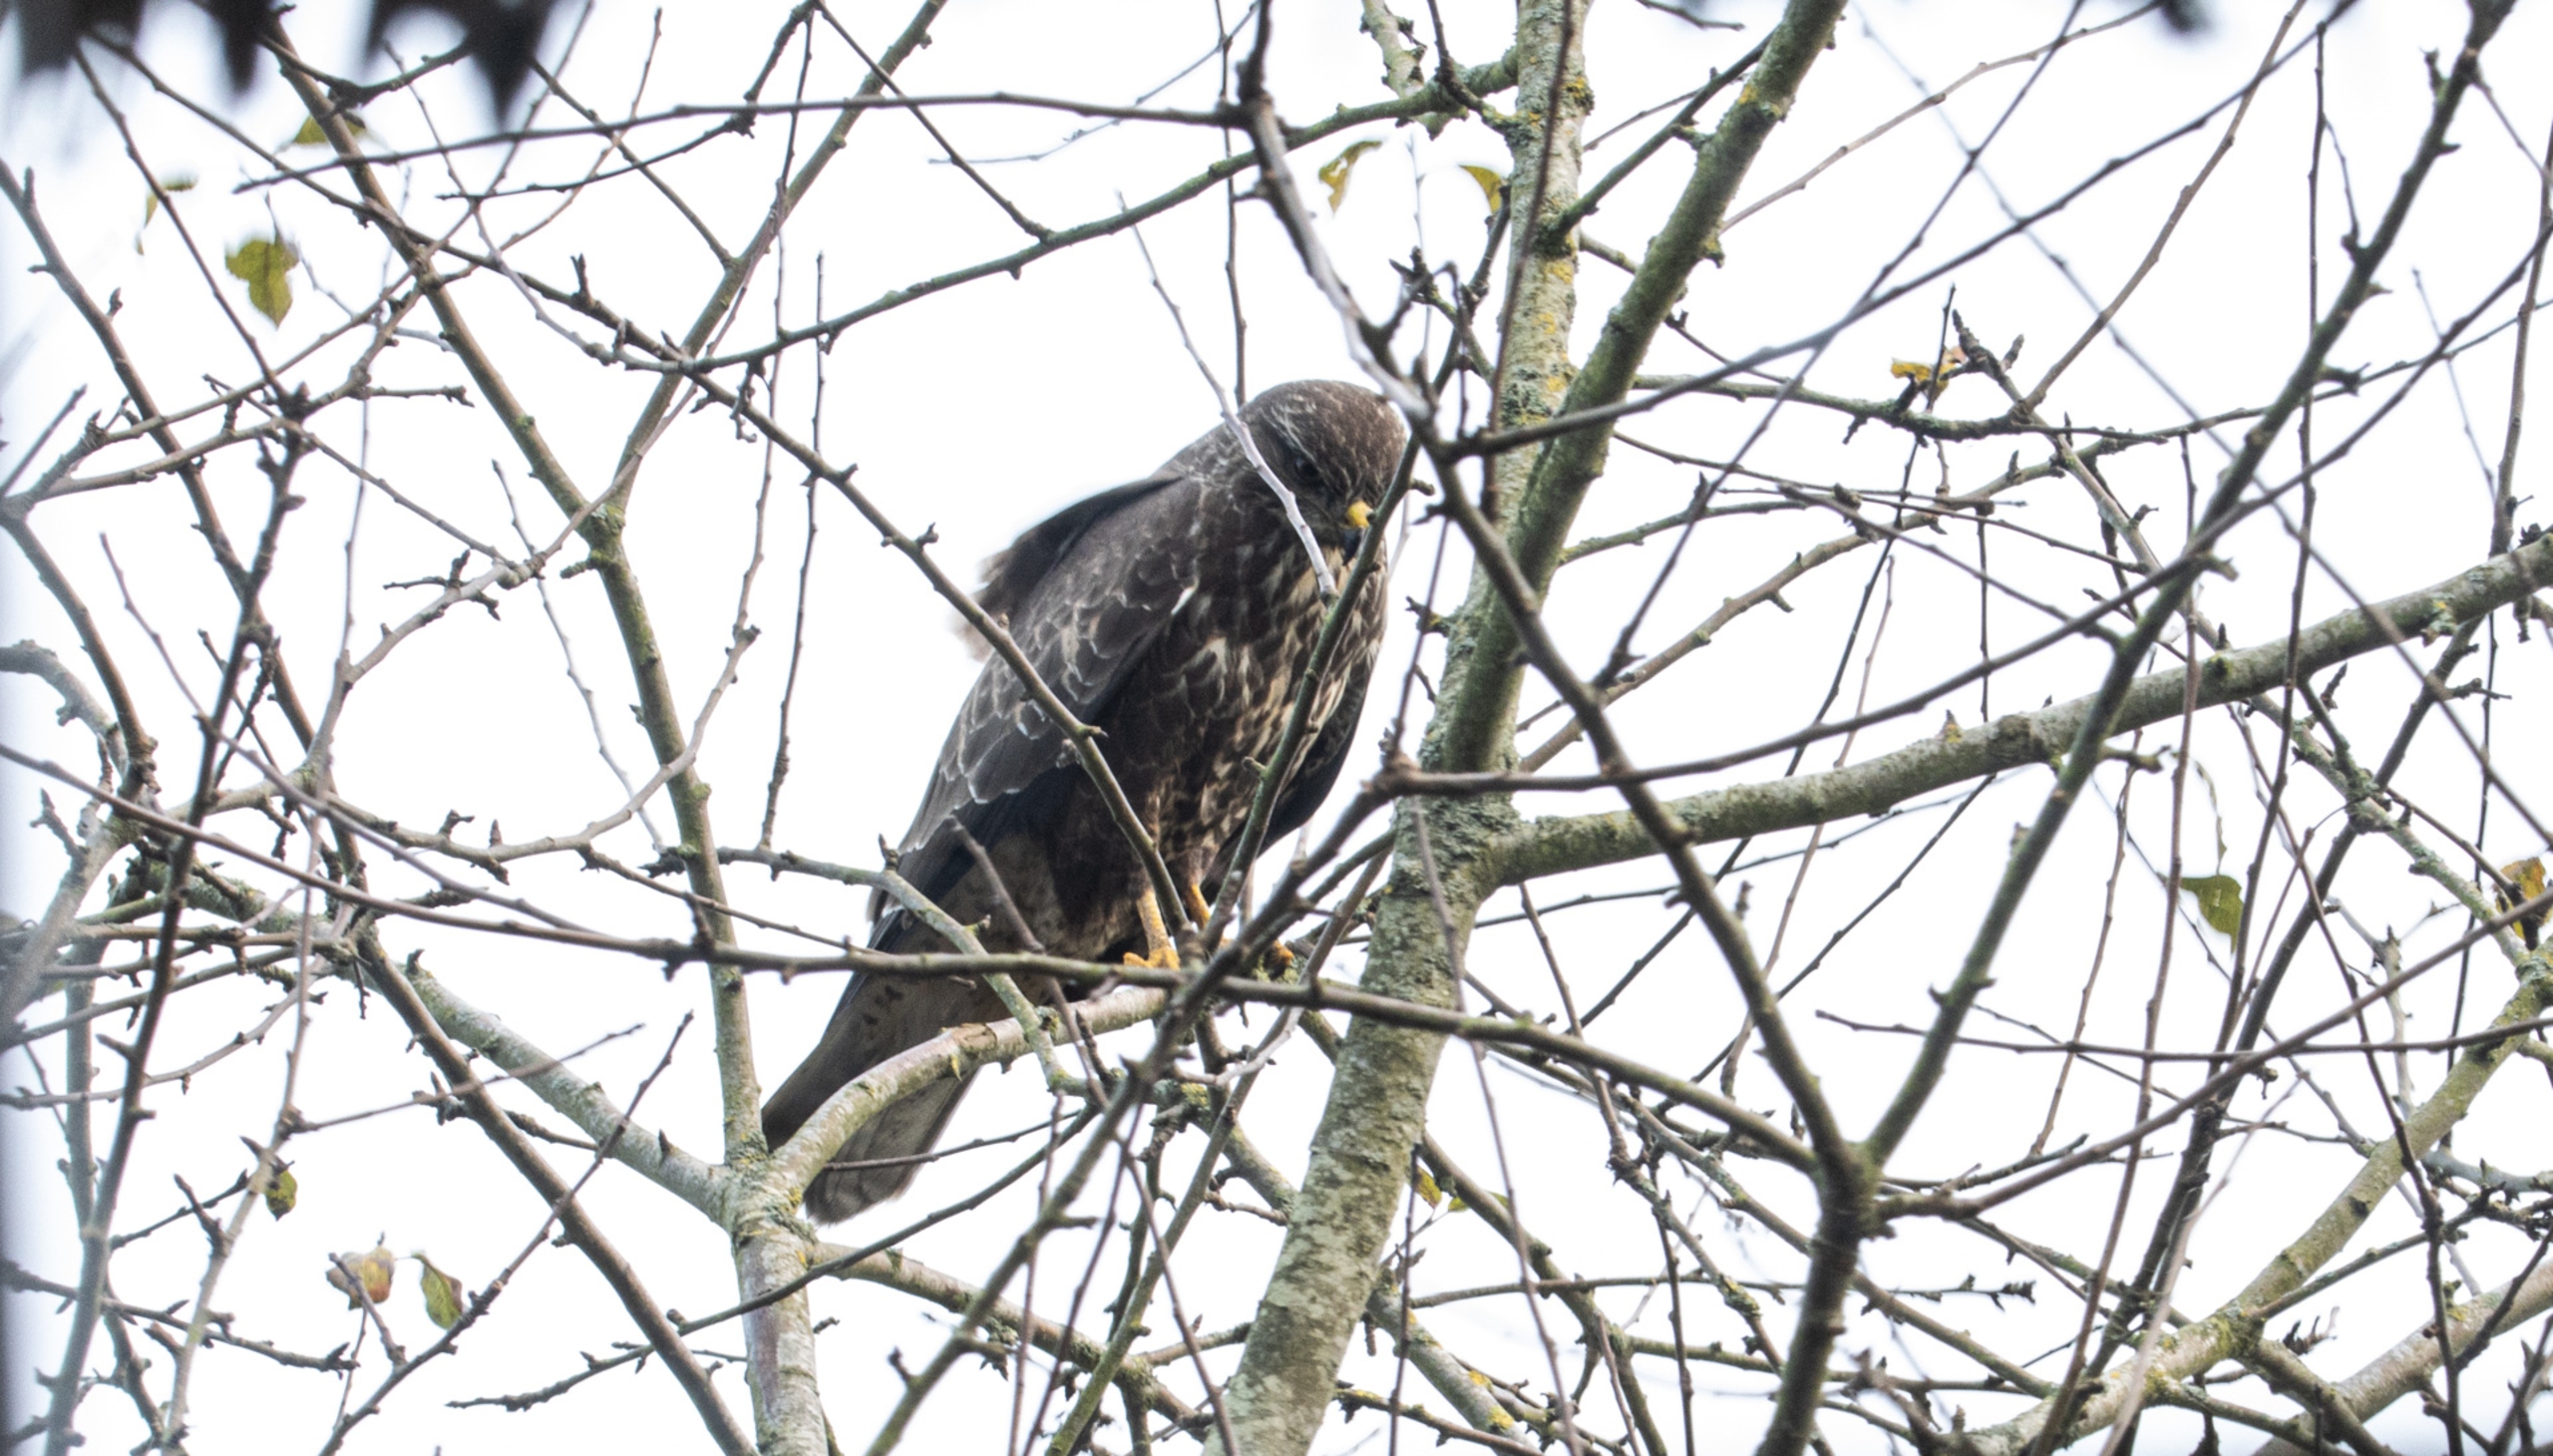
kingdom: Animalia
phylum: Chordata
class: Aves
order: Accipitriformes
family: Accipitridae
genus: Buteo
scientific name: Buteo buteo
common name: Musvåge
